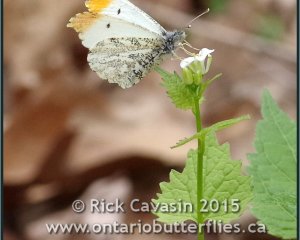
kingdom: Animalia
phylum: Arthropoda
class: Insecta
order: Lepidoptera
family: Pieridae
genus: Anthocharis
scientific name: Anthocharis midea
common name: Falcate Orangetip
